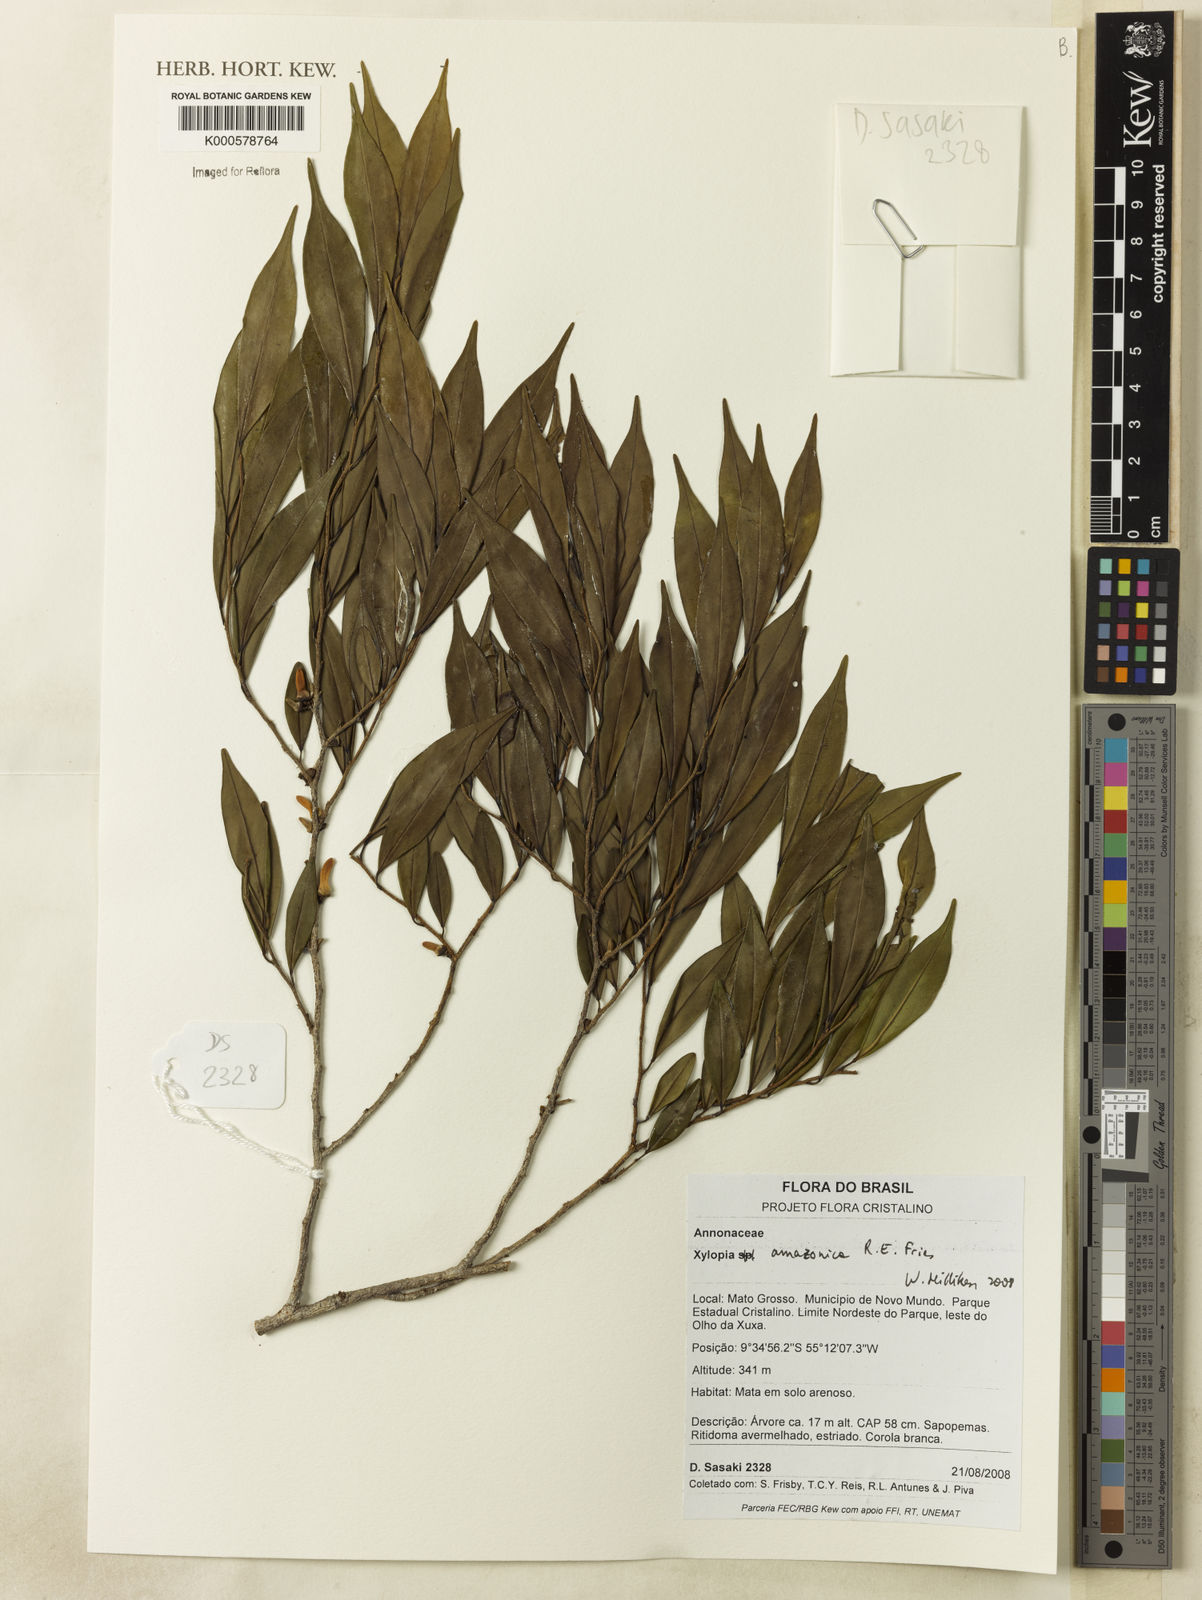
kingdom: Plantae
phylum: Tracheophyta
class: Magnoliopsida
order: Magnoliales
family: Annonaceae
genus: Xylopia
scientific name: Xylopia amazonica
